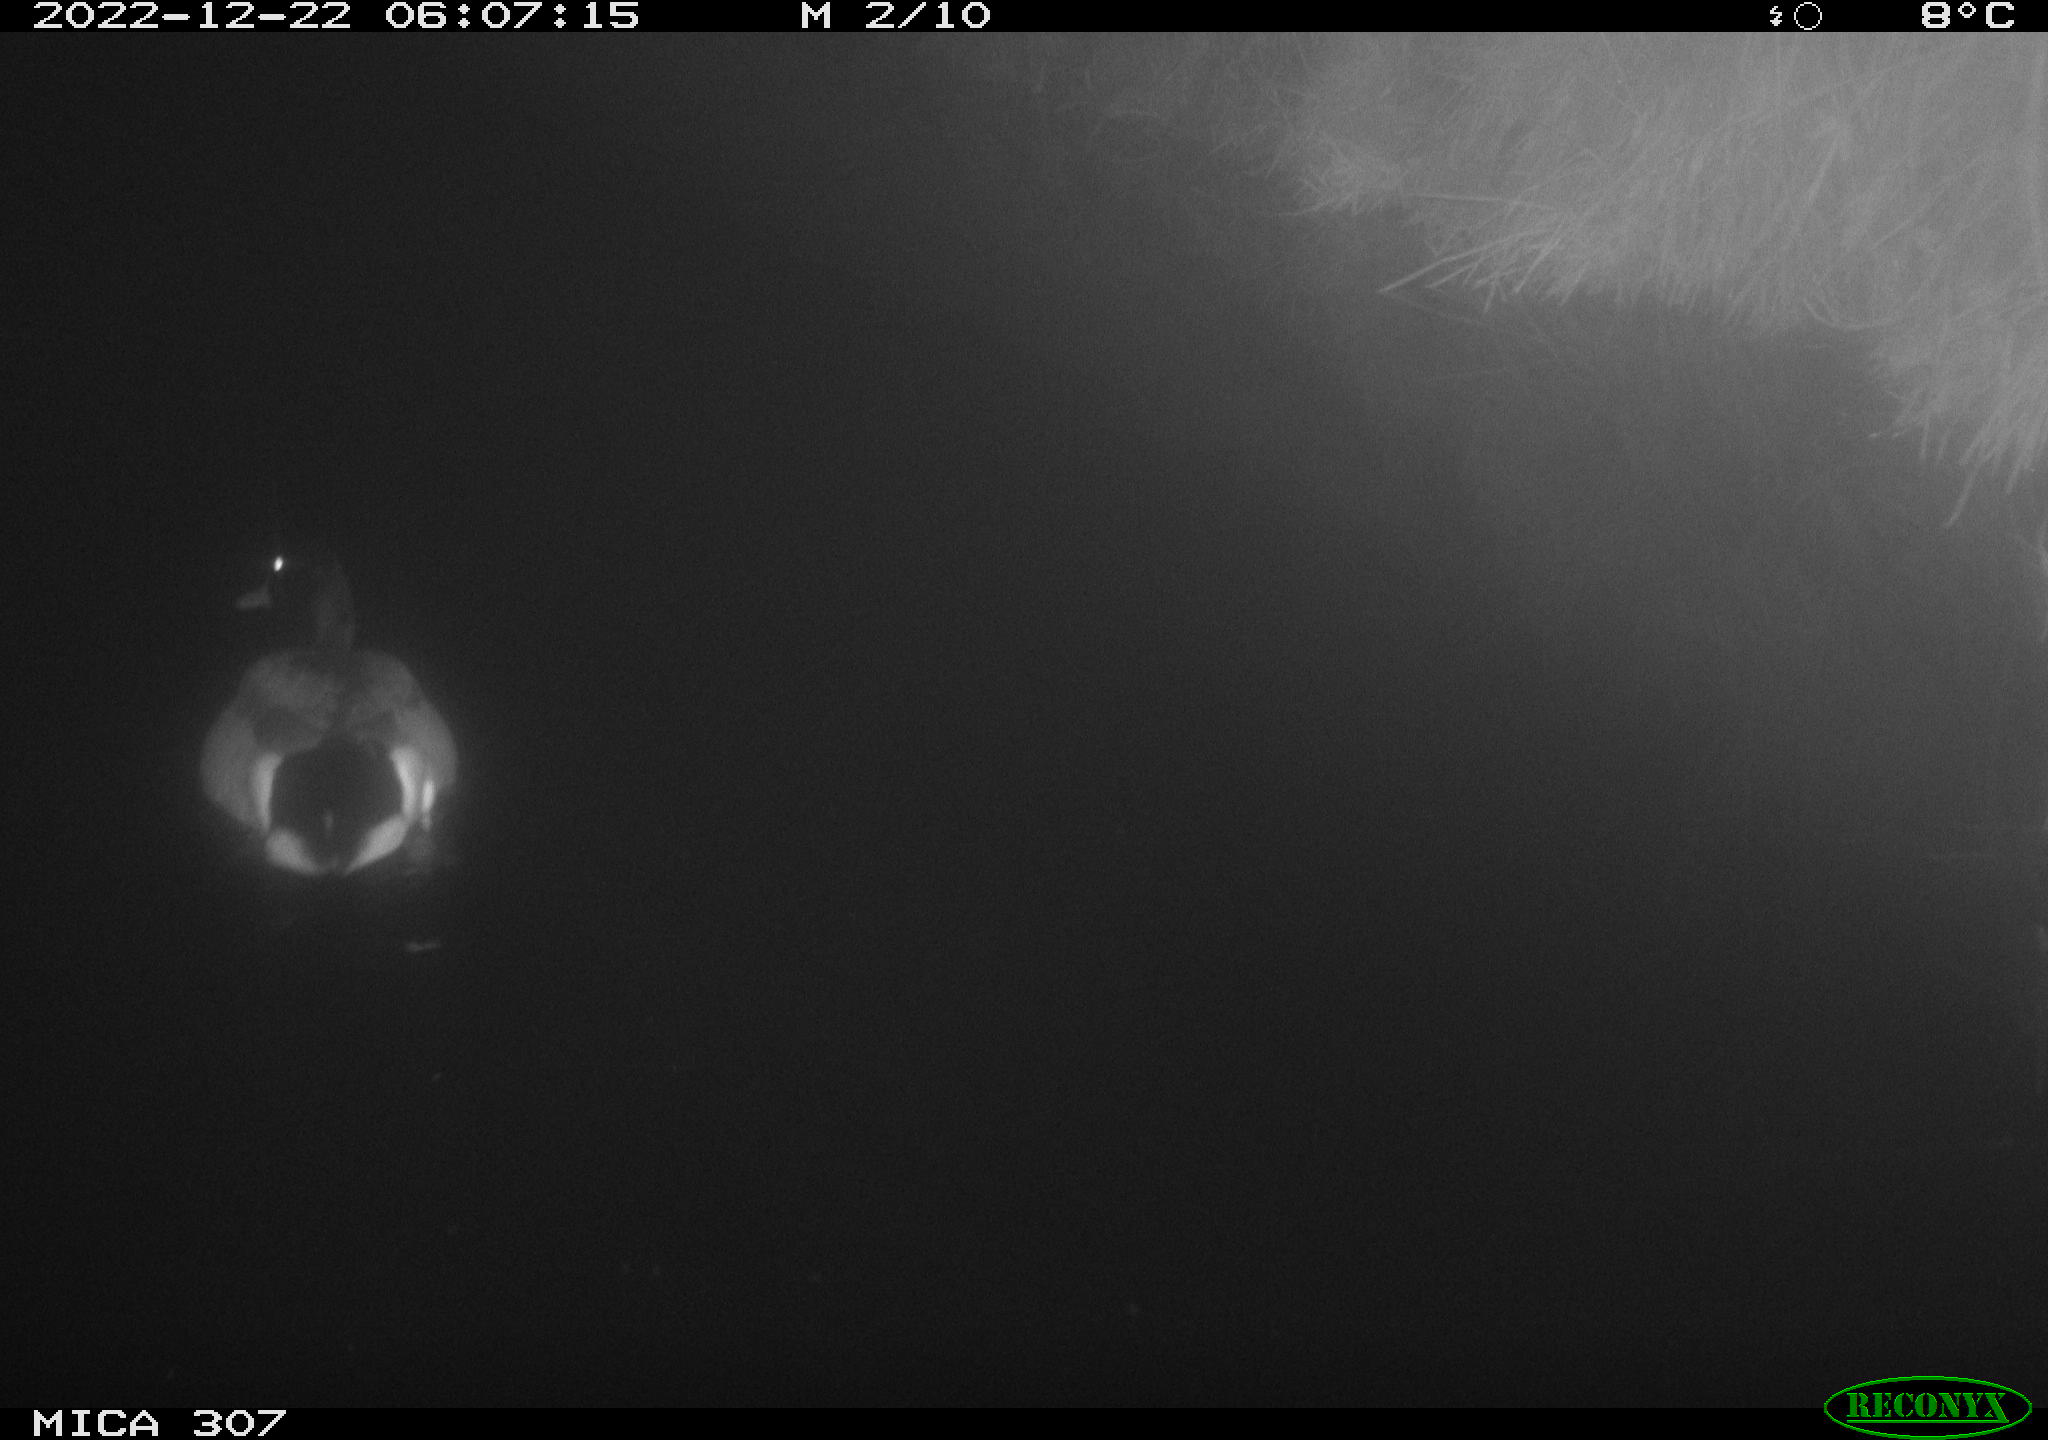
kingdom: Animalia
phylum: Chordata
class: Aves
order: Anseriformes
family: Anatidae
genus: Anas
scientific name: Anas
